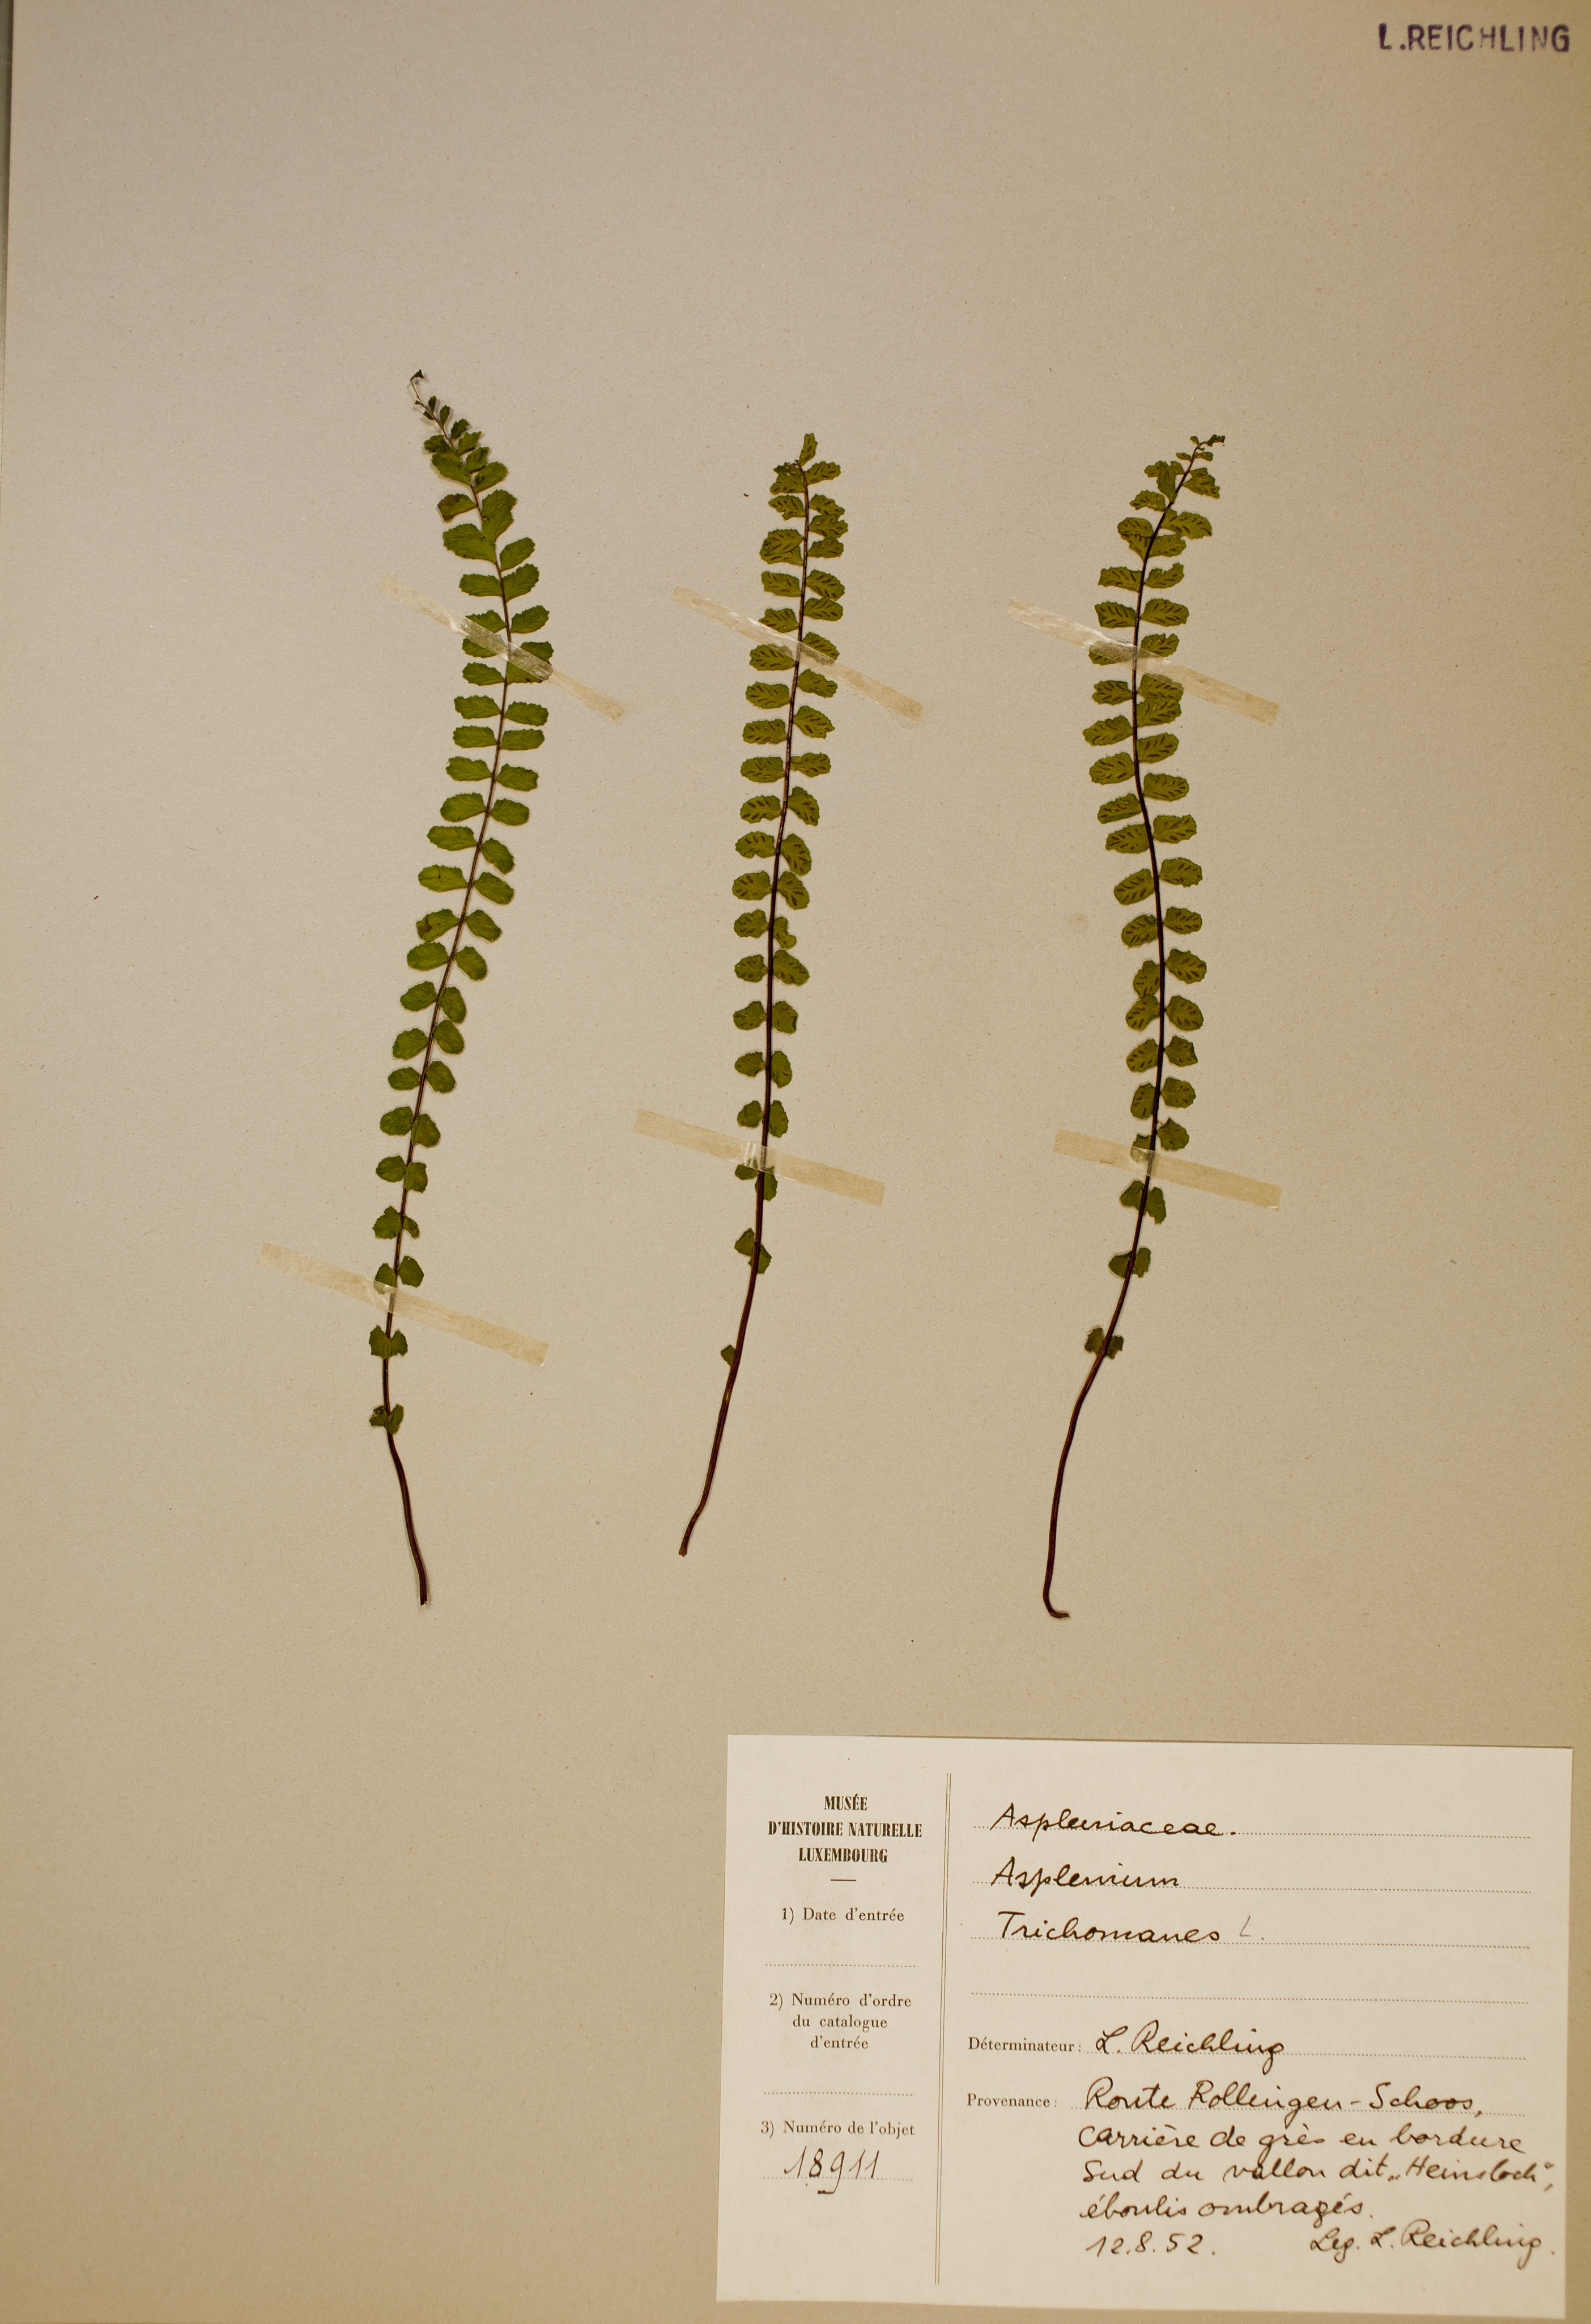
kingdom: Plantae
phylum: Tracheophyta
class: Polypodiopsida
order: Polypodiales
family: Aspleniaceae
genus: Asplenium
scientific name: Asplenium trichomanes
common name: Maidenhair spleenwort
